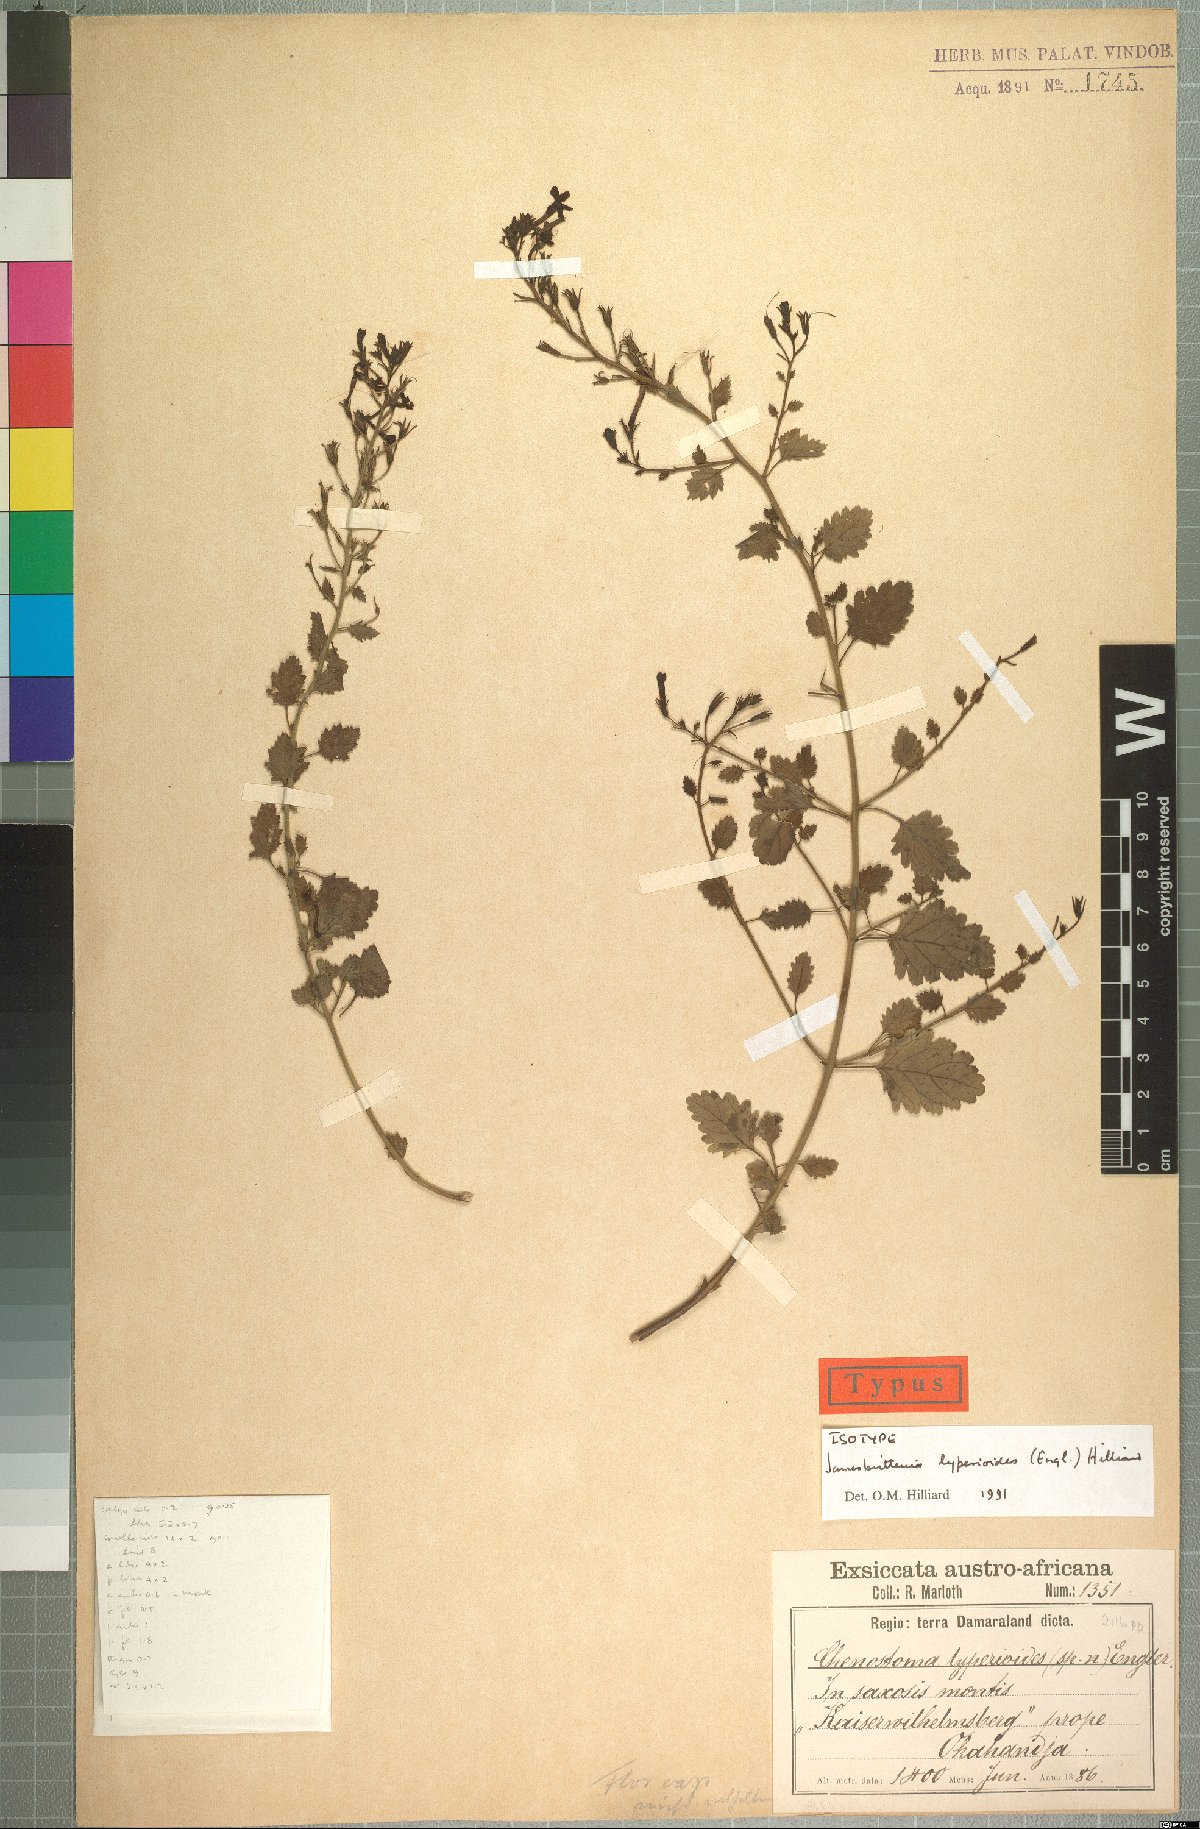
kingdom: Plantae
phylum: Tracheophyta
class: Magnoliopsida
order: Lamiales
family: Scrophulariaceae
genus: Jamesbrittenia
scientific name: Jamesbrittenia lyperioides
